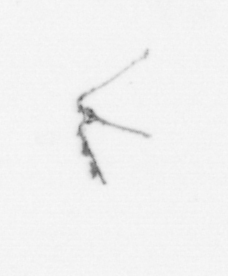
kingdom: Chromista
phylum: Myzozoa
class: Dinophyceae
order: Gonyaulacales
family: Ceratiaceae
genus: Ceratium
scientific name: Ceratium
